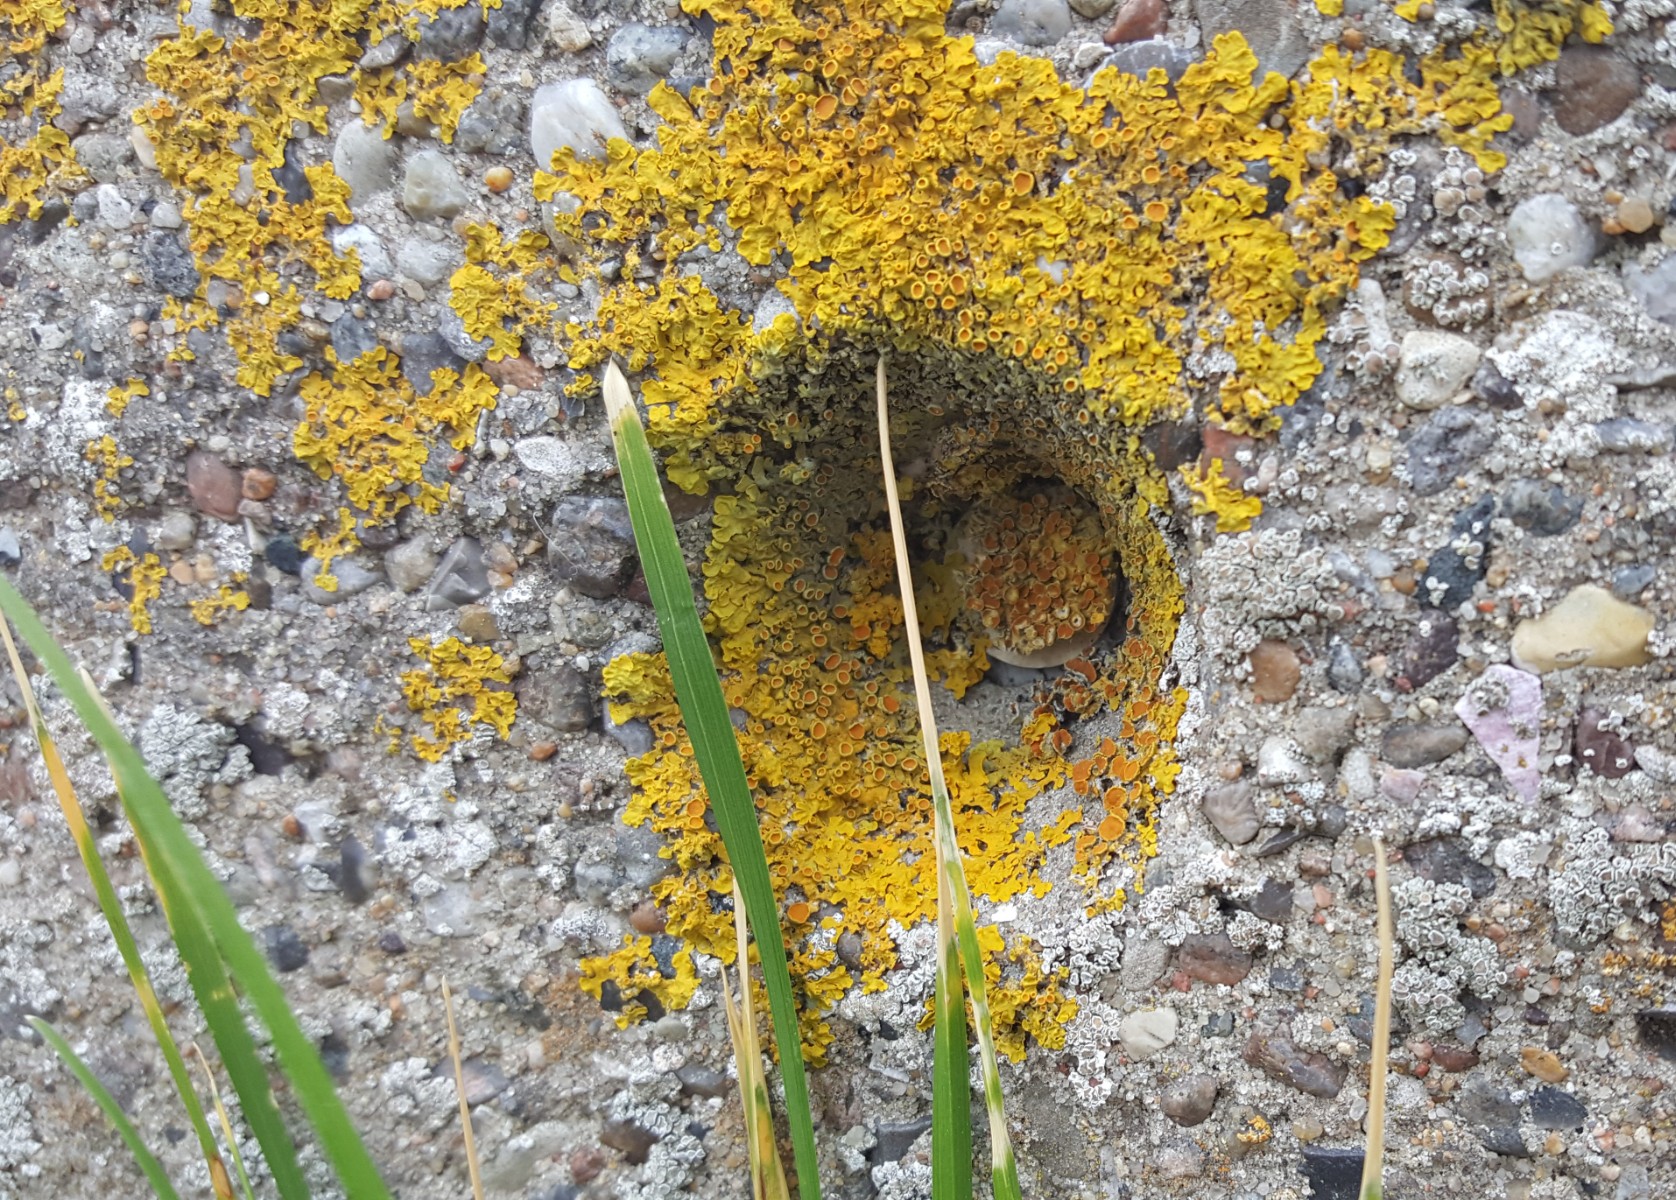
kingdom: Fungi
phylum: Ascomycota
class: Lecanoromycetes
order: Teloschistales
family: Teloschistaceae
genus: Xanthoria
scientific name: Xanthoria parietina
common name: almindelig væggelav
